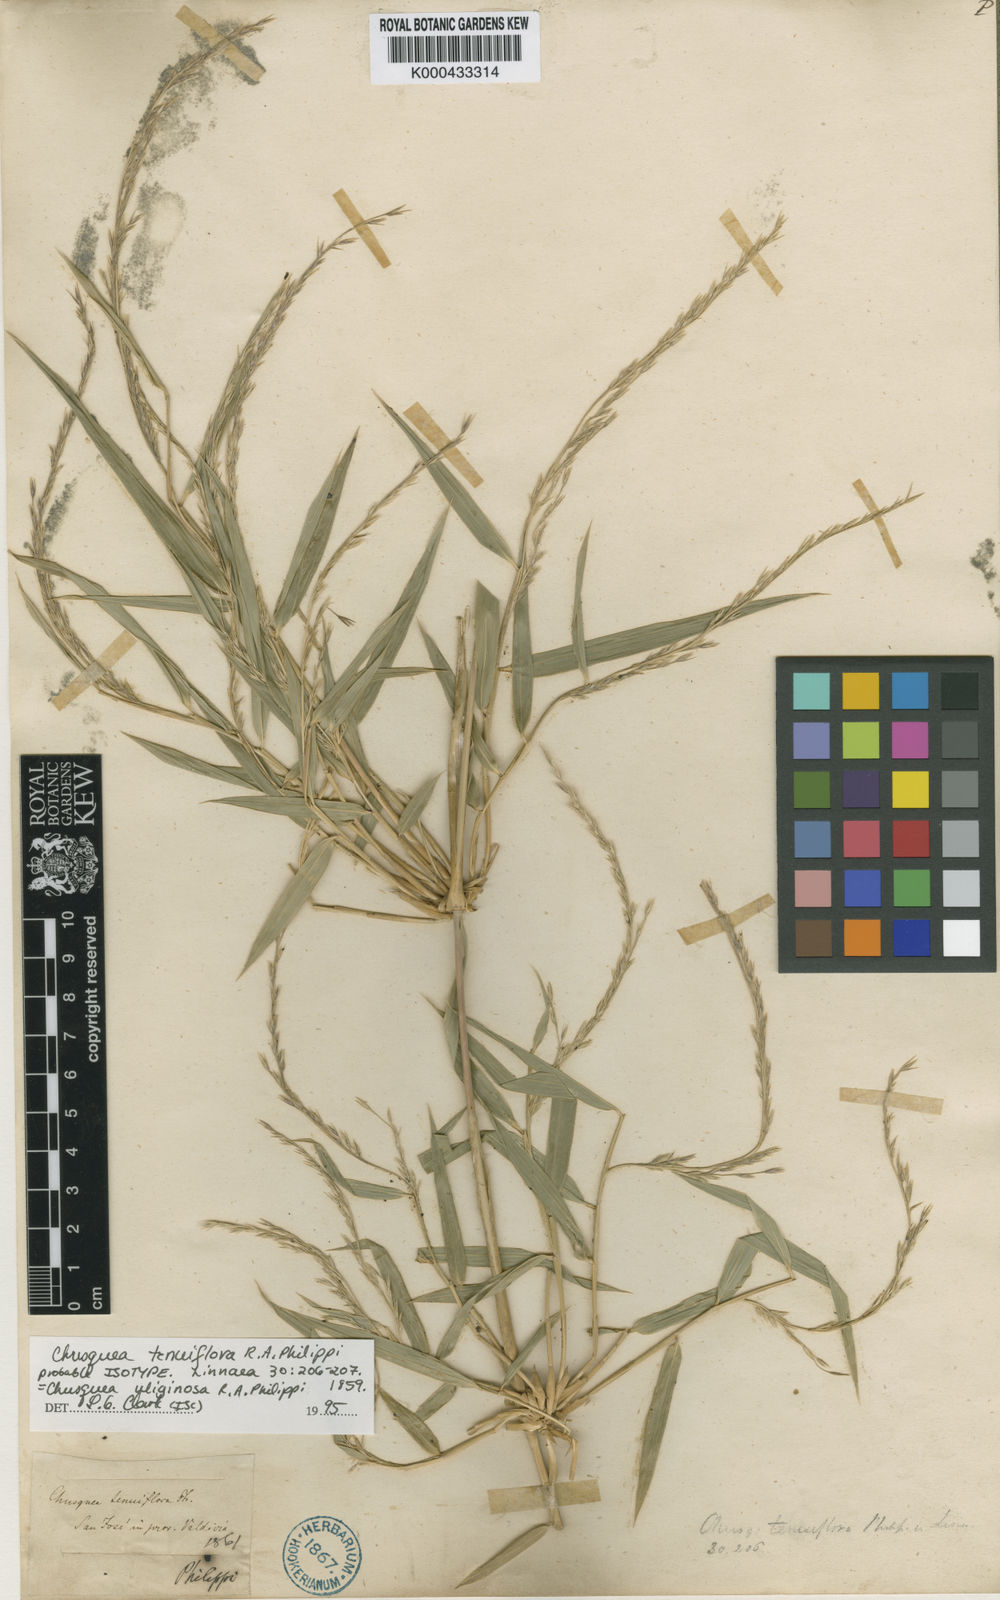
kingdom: Plantae
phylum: Tracheophyta
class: Liliopsida
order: Poales
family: Poaceae
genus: Chusquea
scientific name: Chusquea uliginosa
